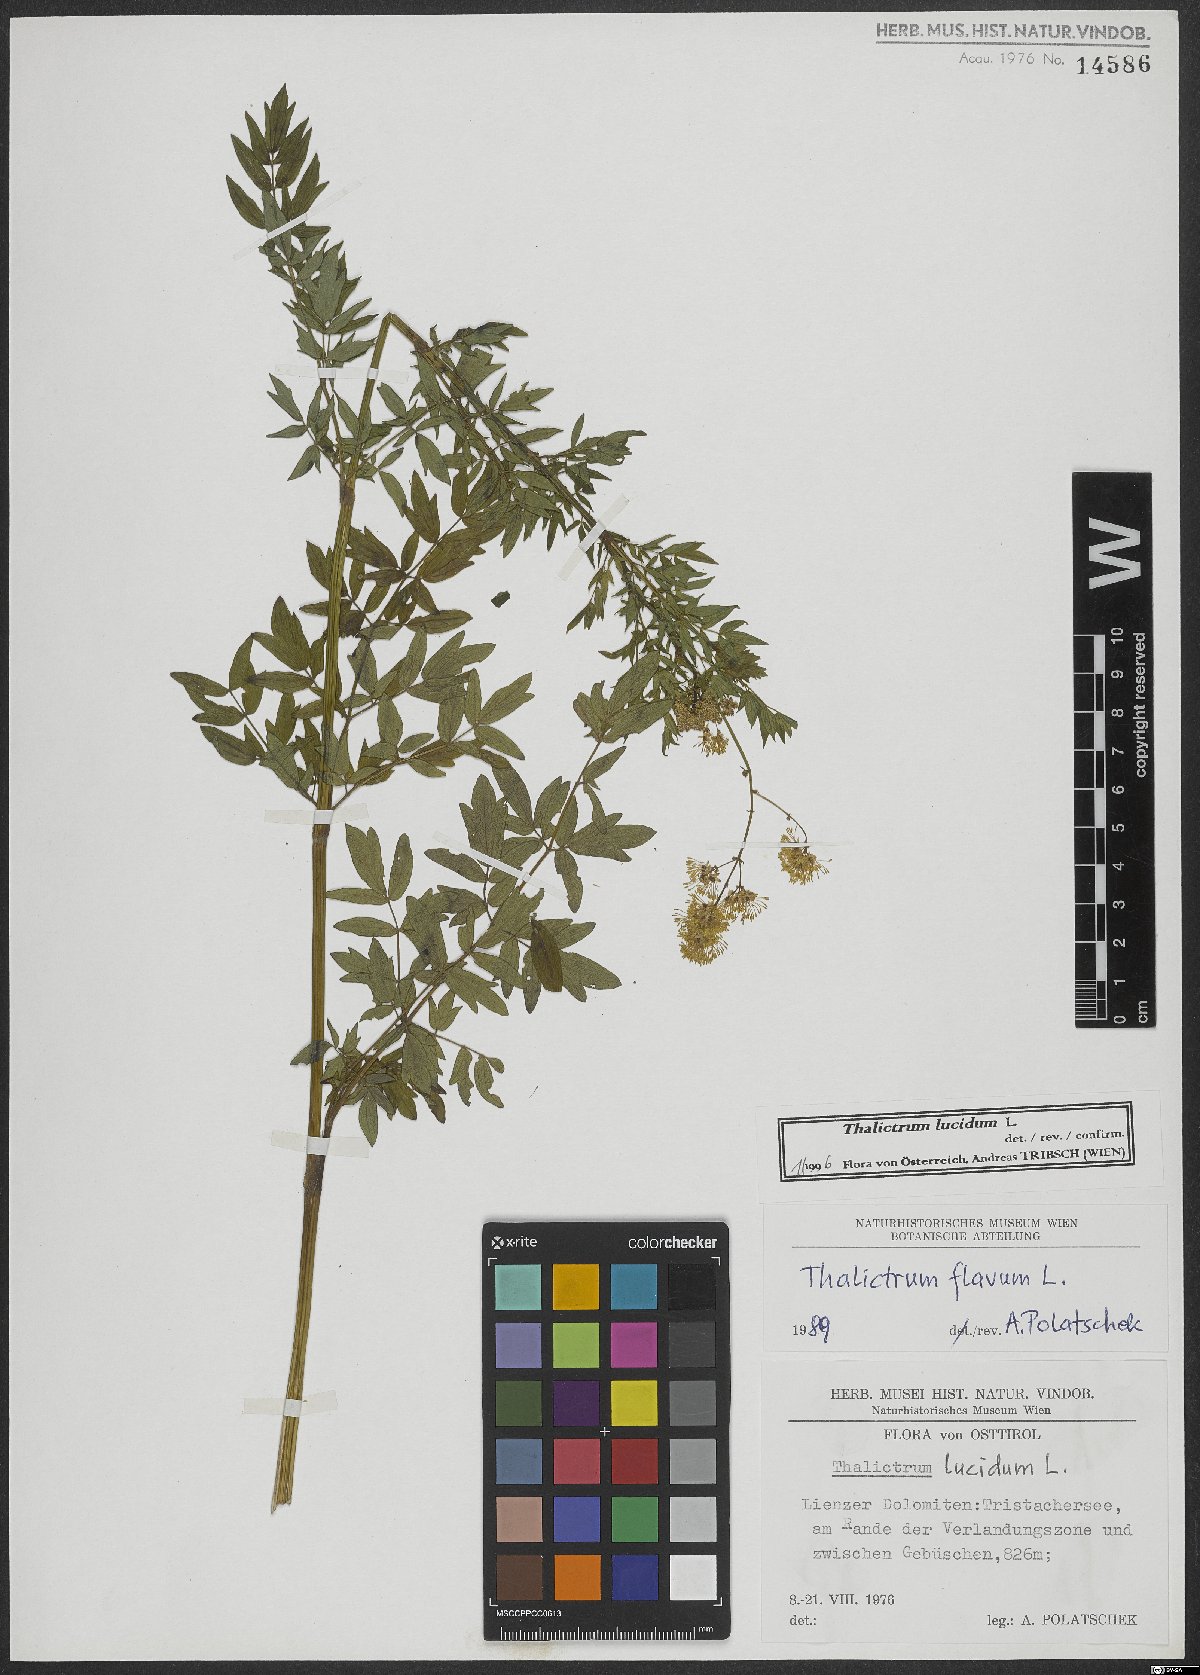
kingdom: Plantae
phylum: Tracheophyta
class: Magnoliopsida
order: Ranunculales
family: Ranunculaceae
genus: Thalictrum
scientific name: Thalictrum lucidum
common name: Shining meadow-rue
